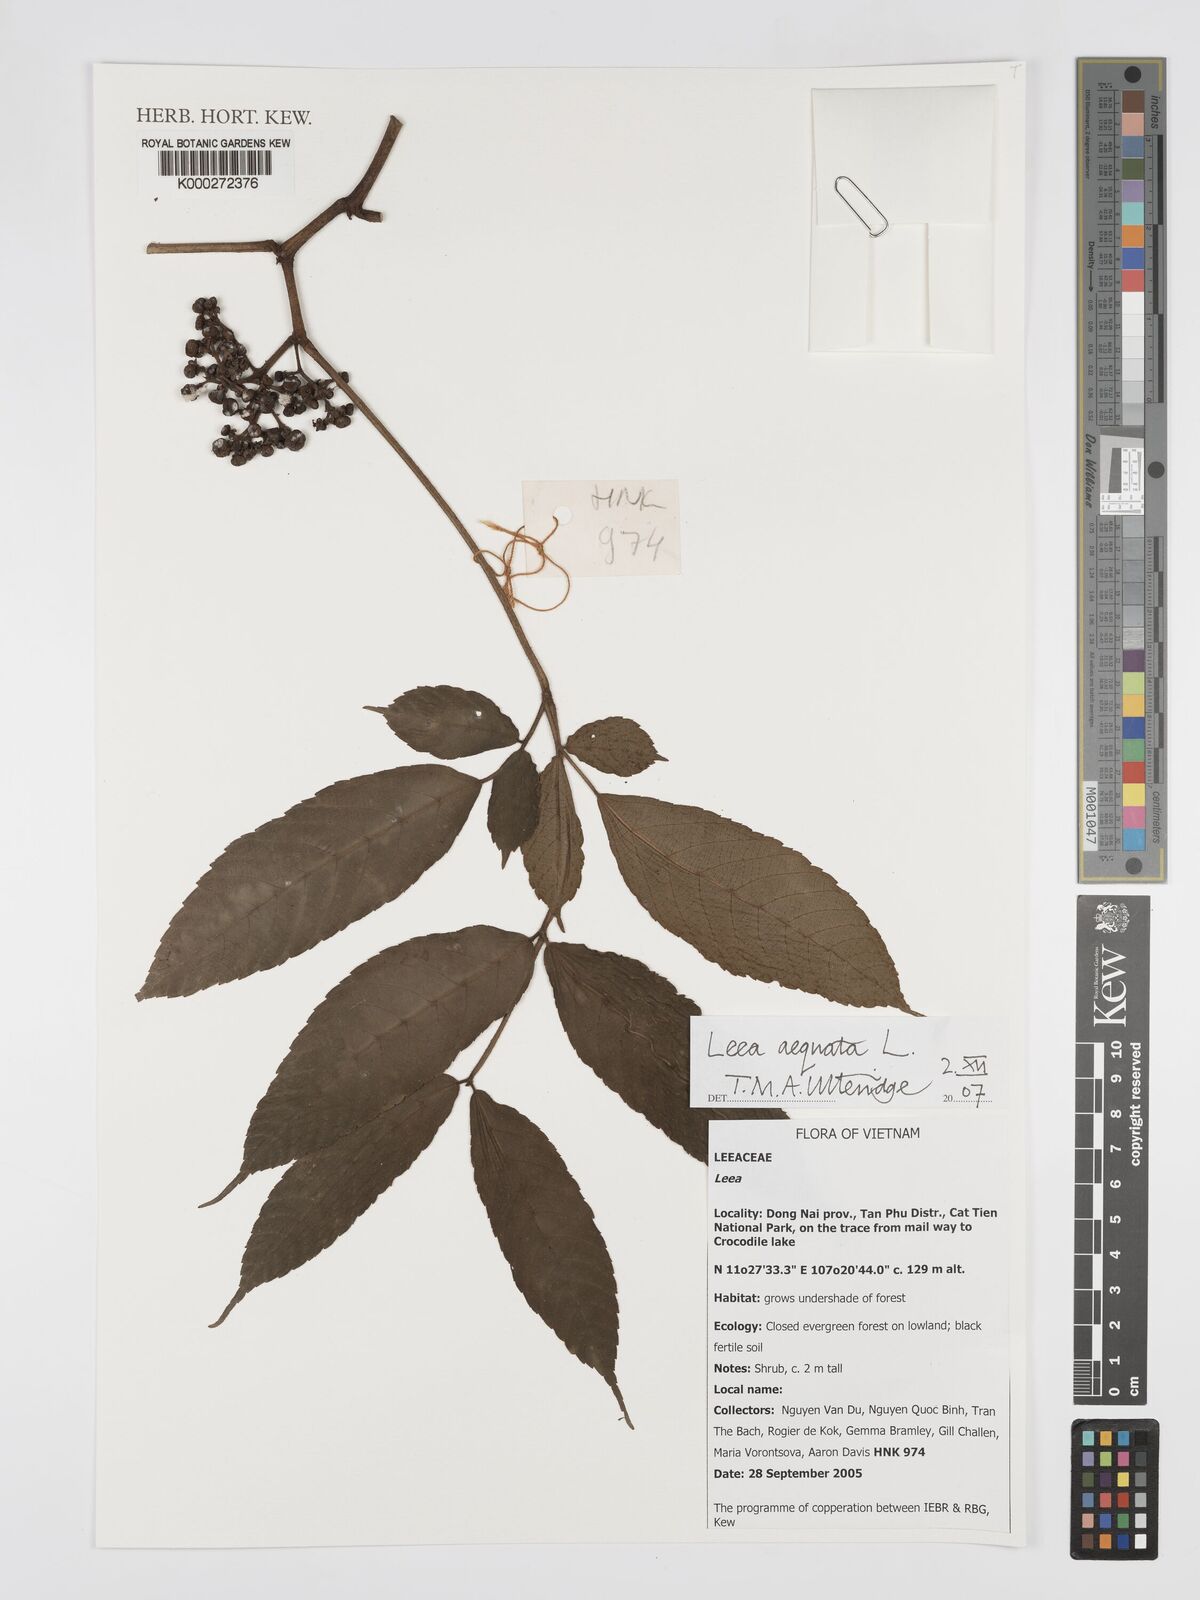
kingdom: Plantae
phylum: Tracheophyta
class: Magnoliopsida
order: Vitales
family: Vitaceae
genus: Leea
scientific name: Leea aequata
